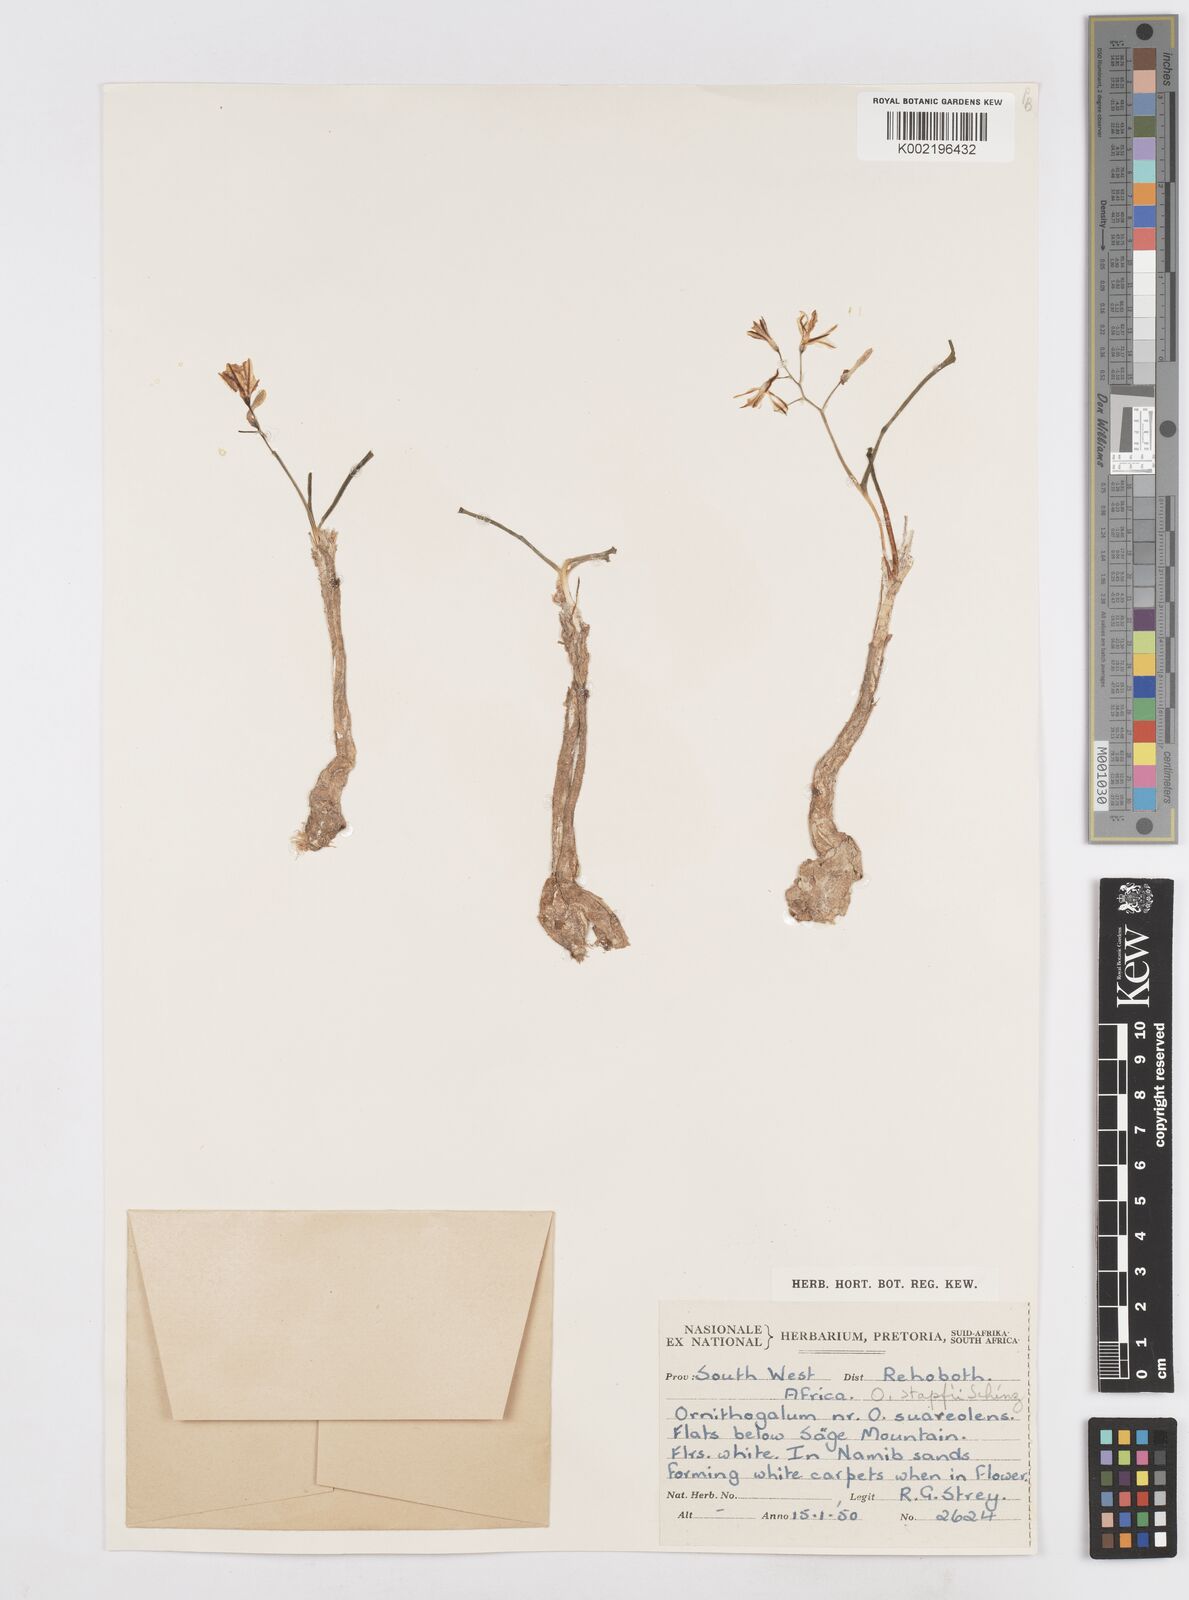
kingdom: Plantae
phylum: Tracheophyta
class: Liliopsida
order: Asparagales
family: Asparagaceae
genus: Albuca
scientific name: Albuca stapffii
